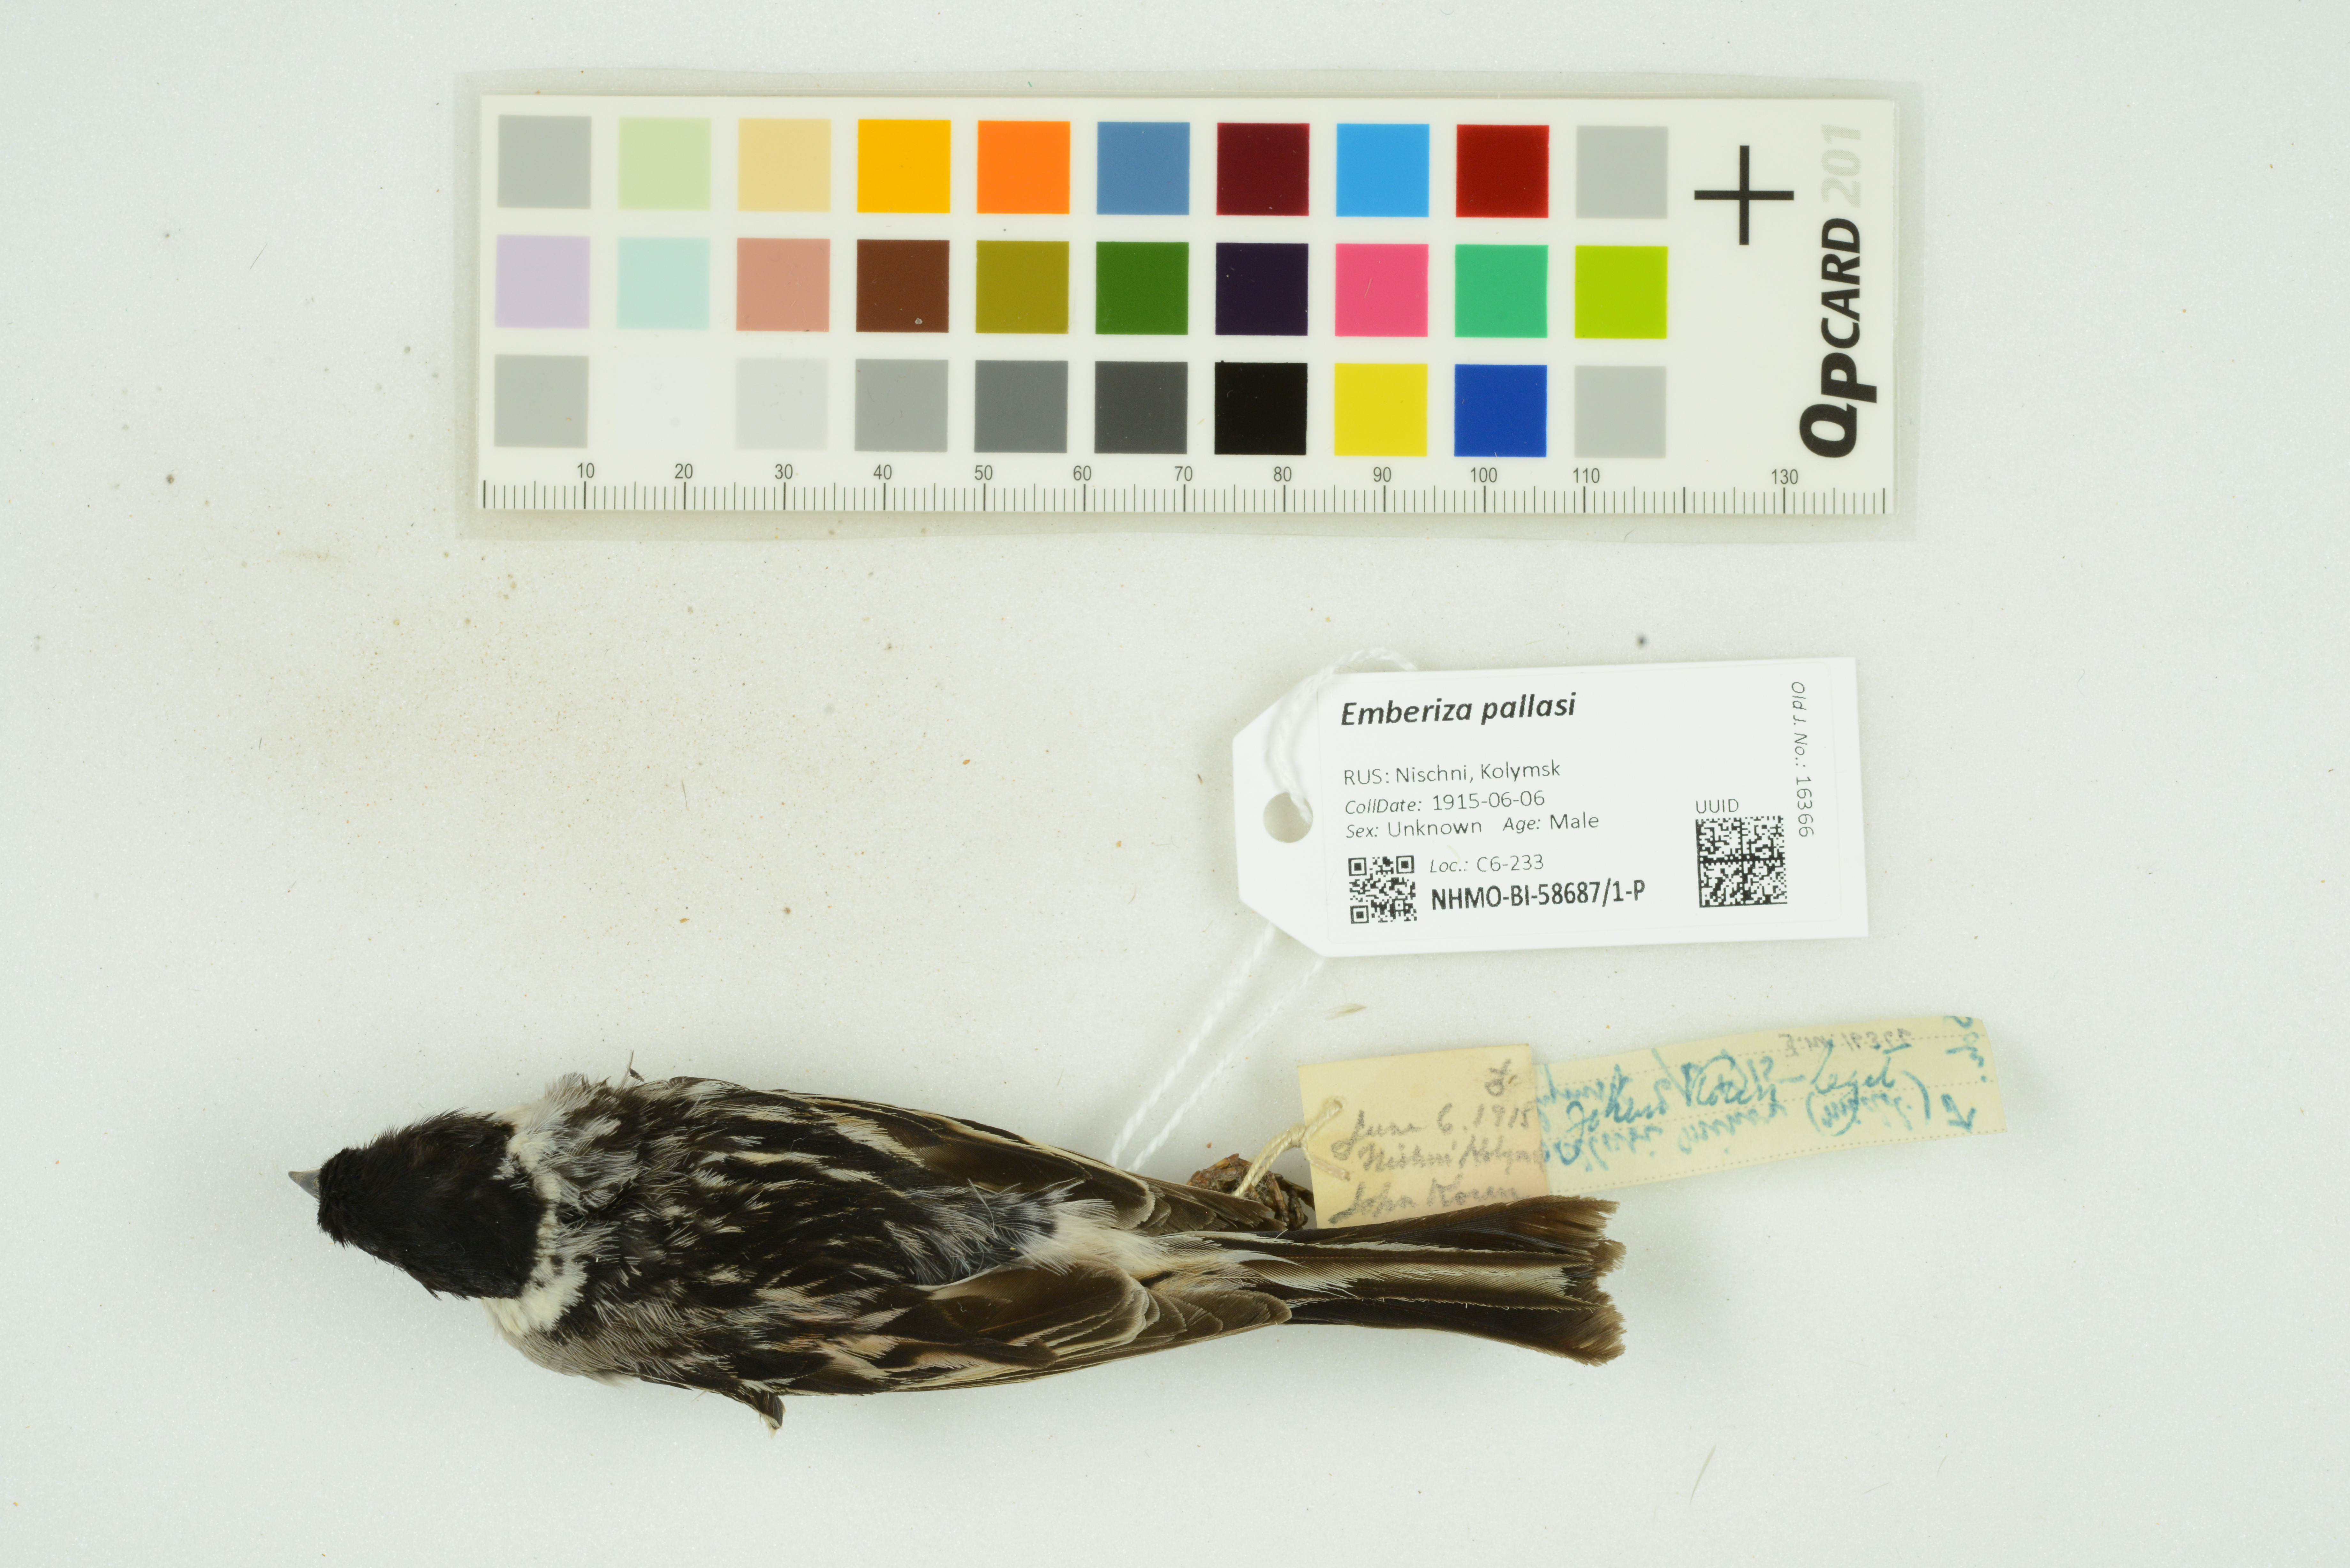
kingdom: Animalia
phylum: Chordata
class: Aves
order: Passeriformes
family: Emberizidae
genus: Emberiza
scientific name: Emberiza pallasi
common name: Pallas's reed bunting
